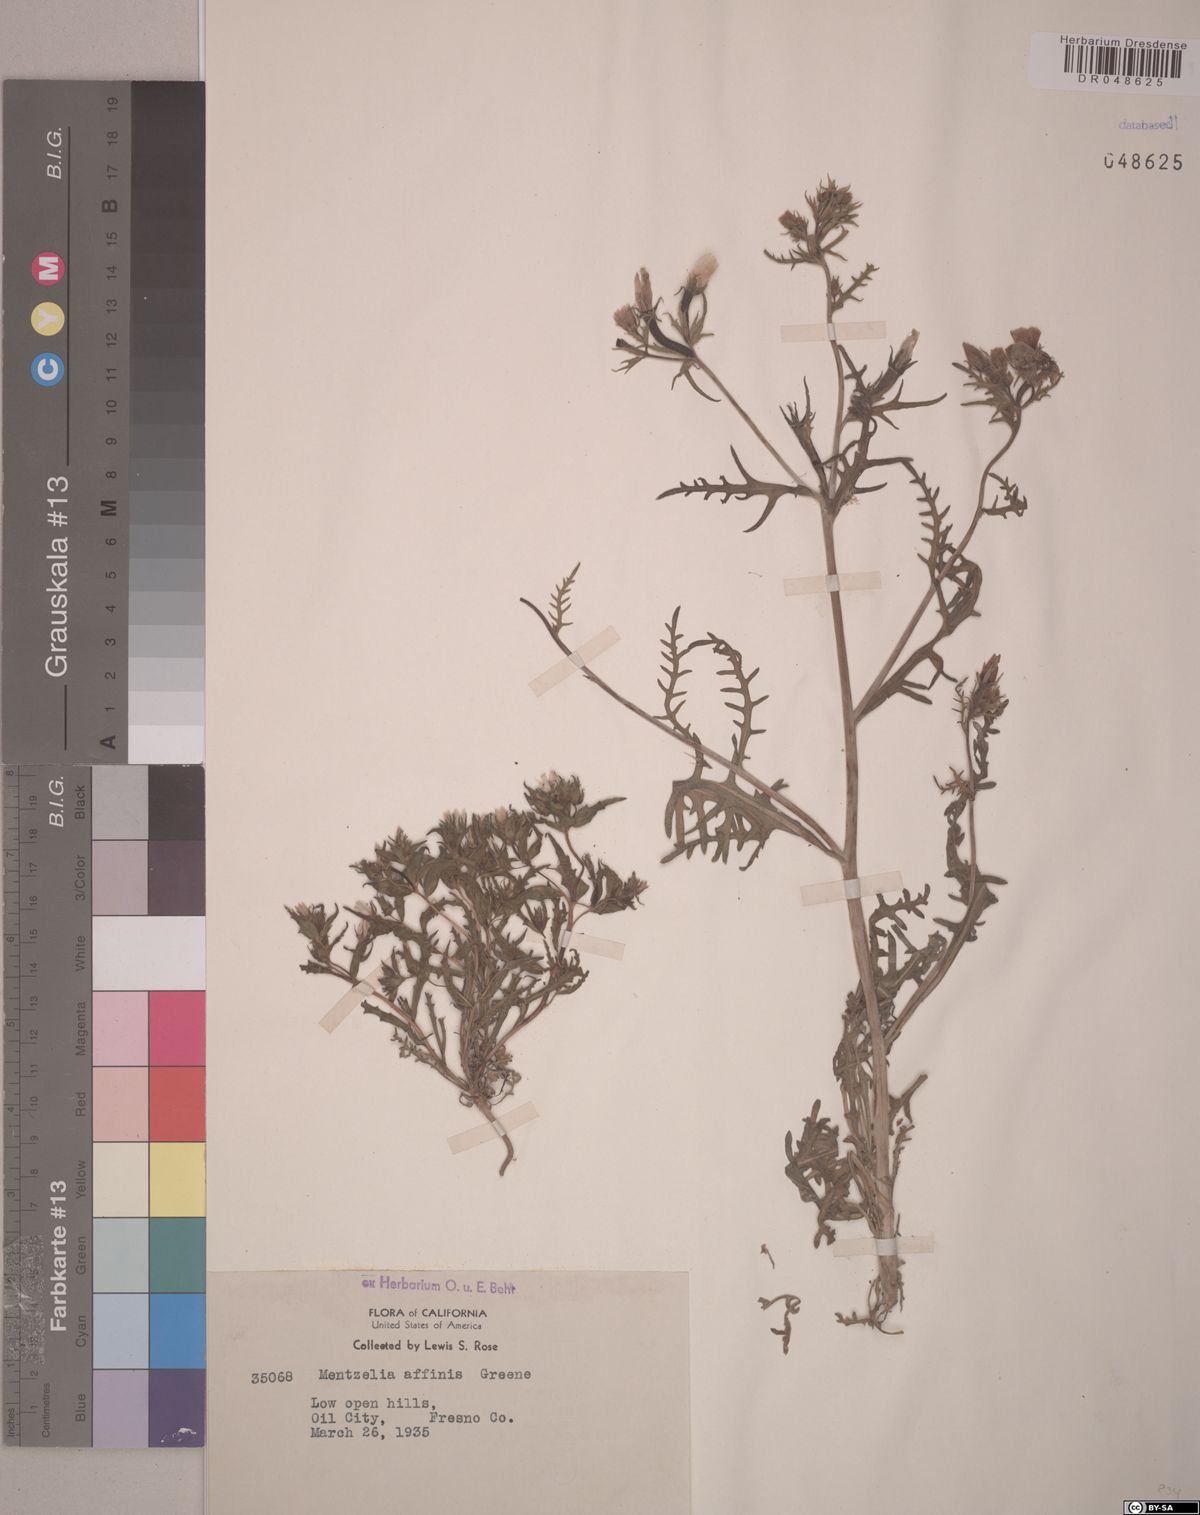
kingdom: Plantae
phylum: Tracheophyta
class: Magnoliopsida
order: Cornales
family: Loasaceae
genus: Mentzelia
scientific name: Mentzelia affinis
